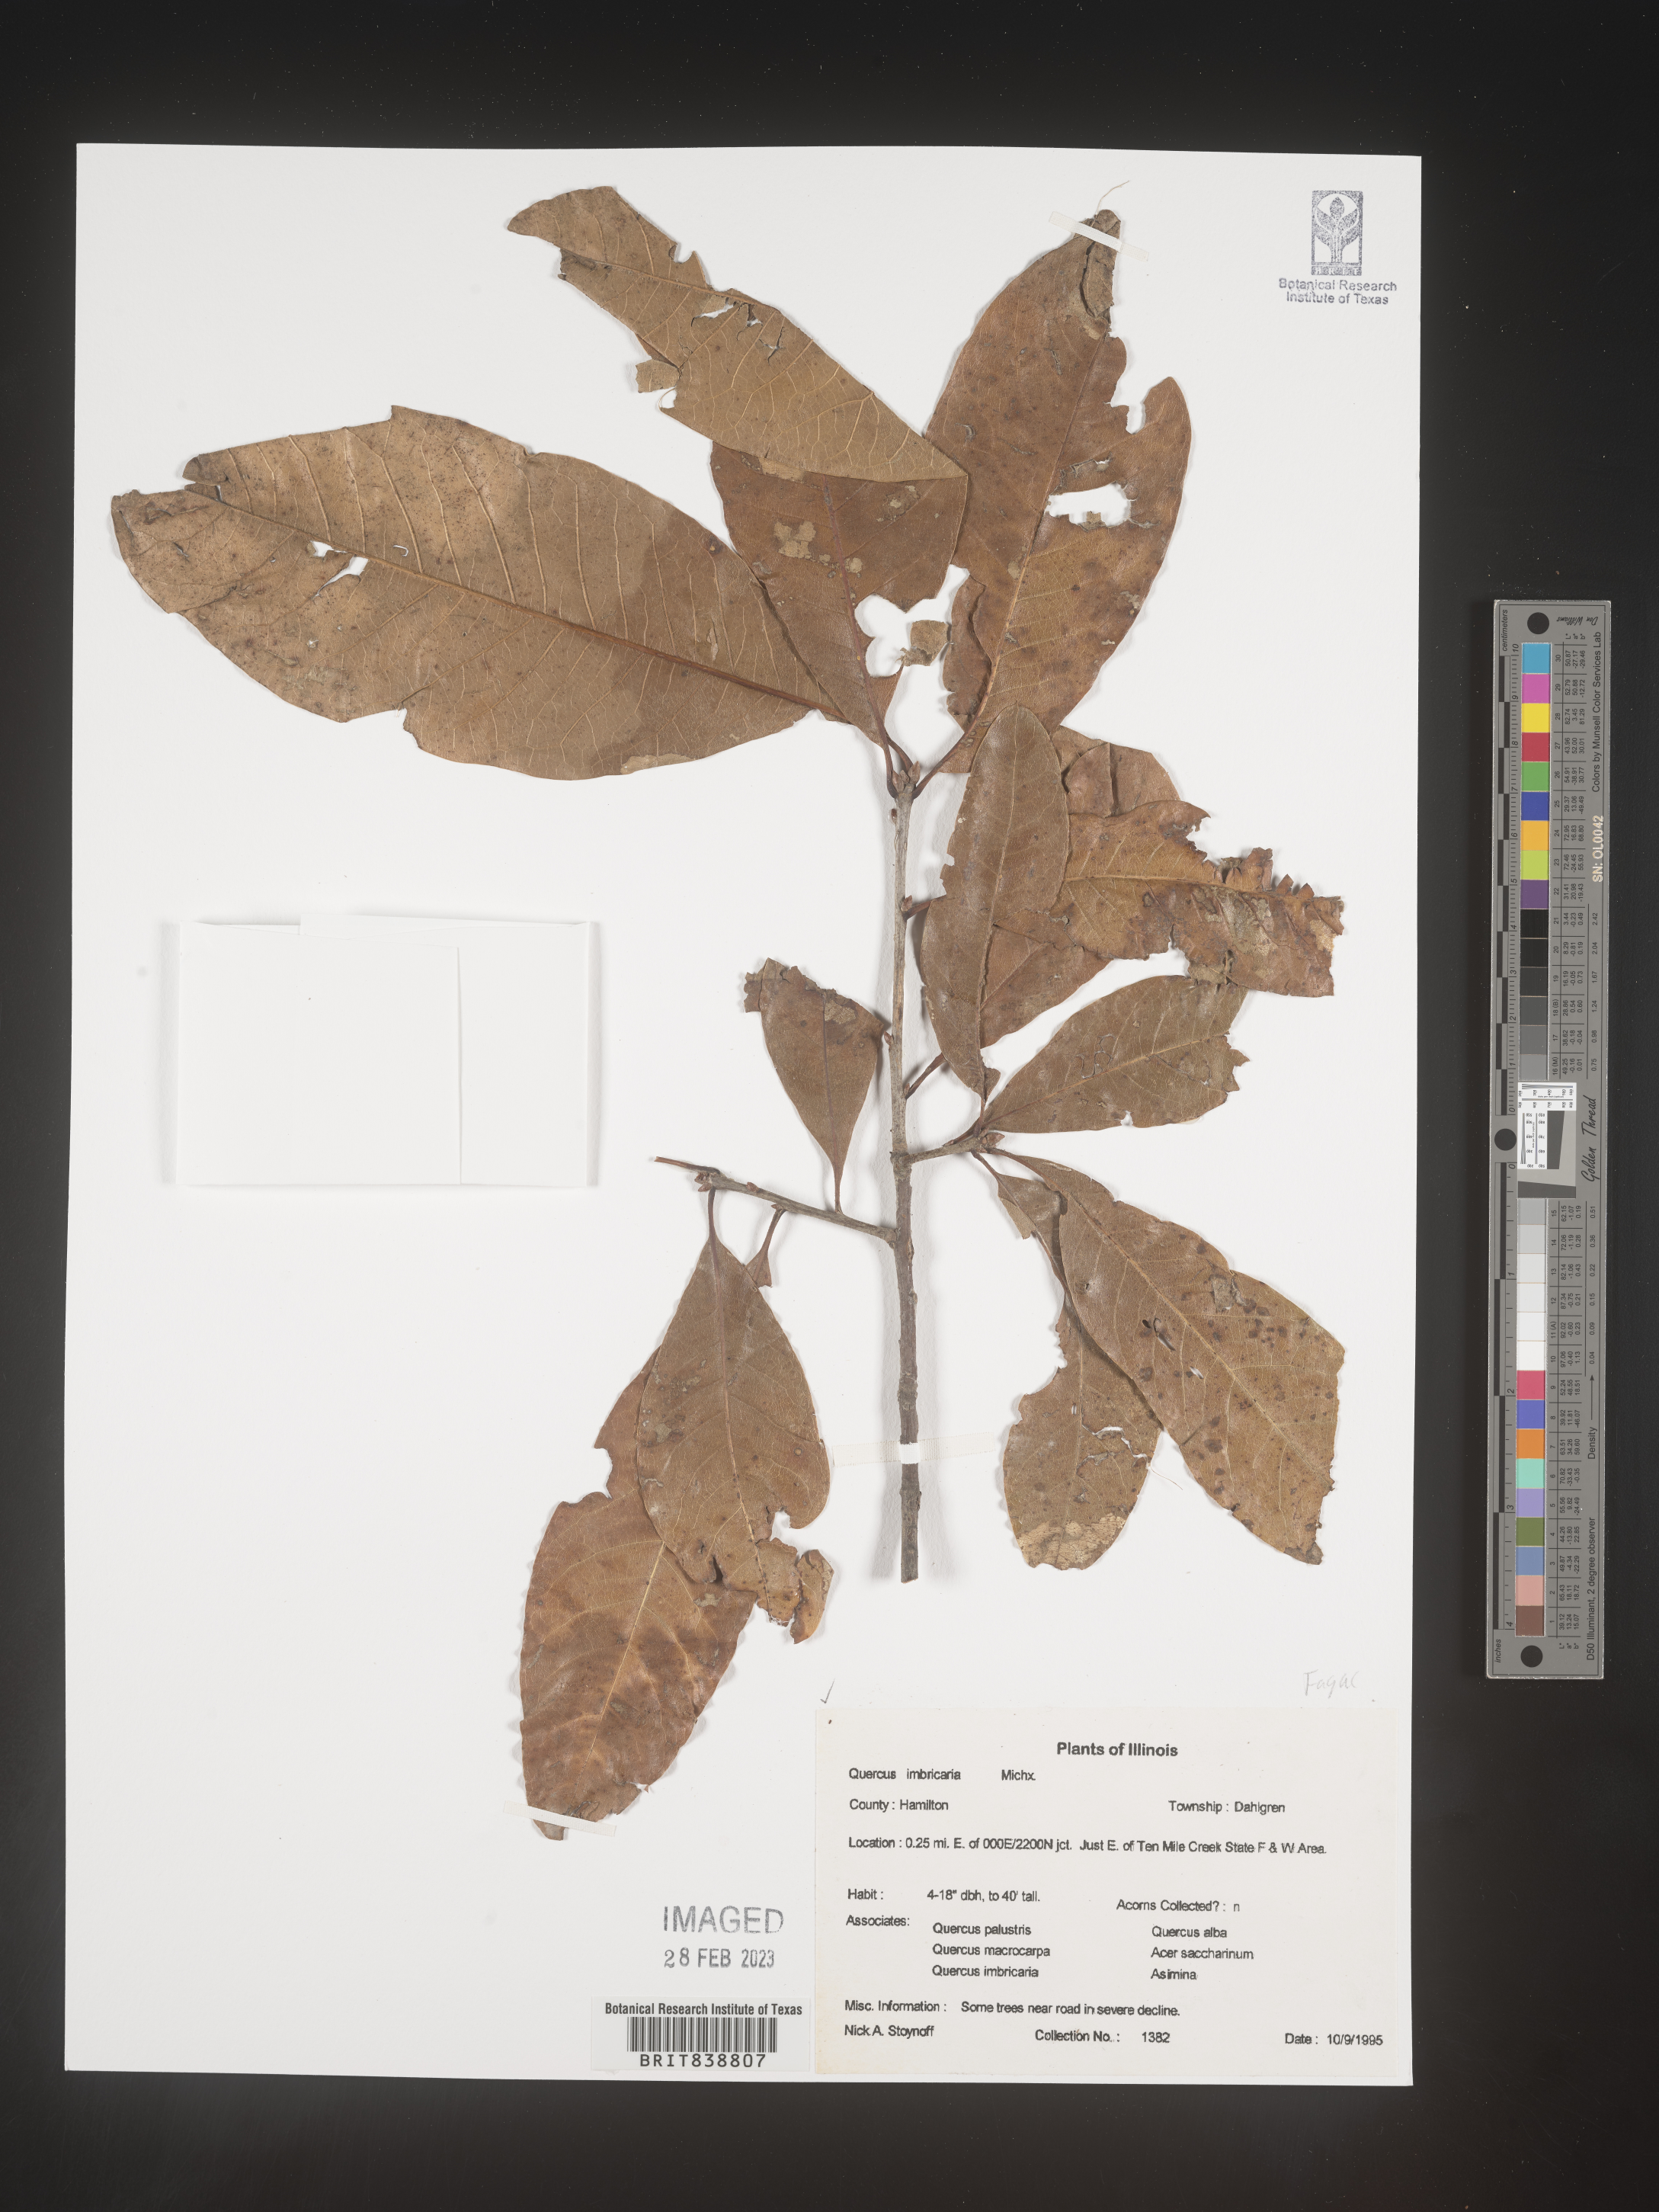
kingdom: Plantae
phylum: Tracheophyta
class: Magnoliopsida
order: Fagales
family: Fagaceae
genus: Quercus
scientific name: Quercus imbricaria
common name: Shingle oak
